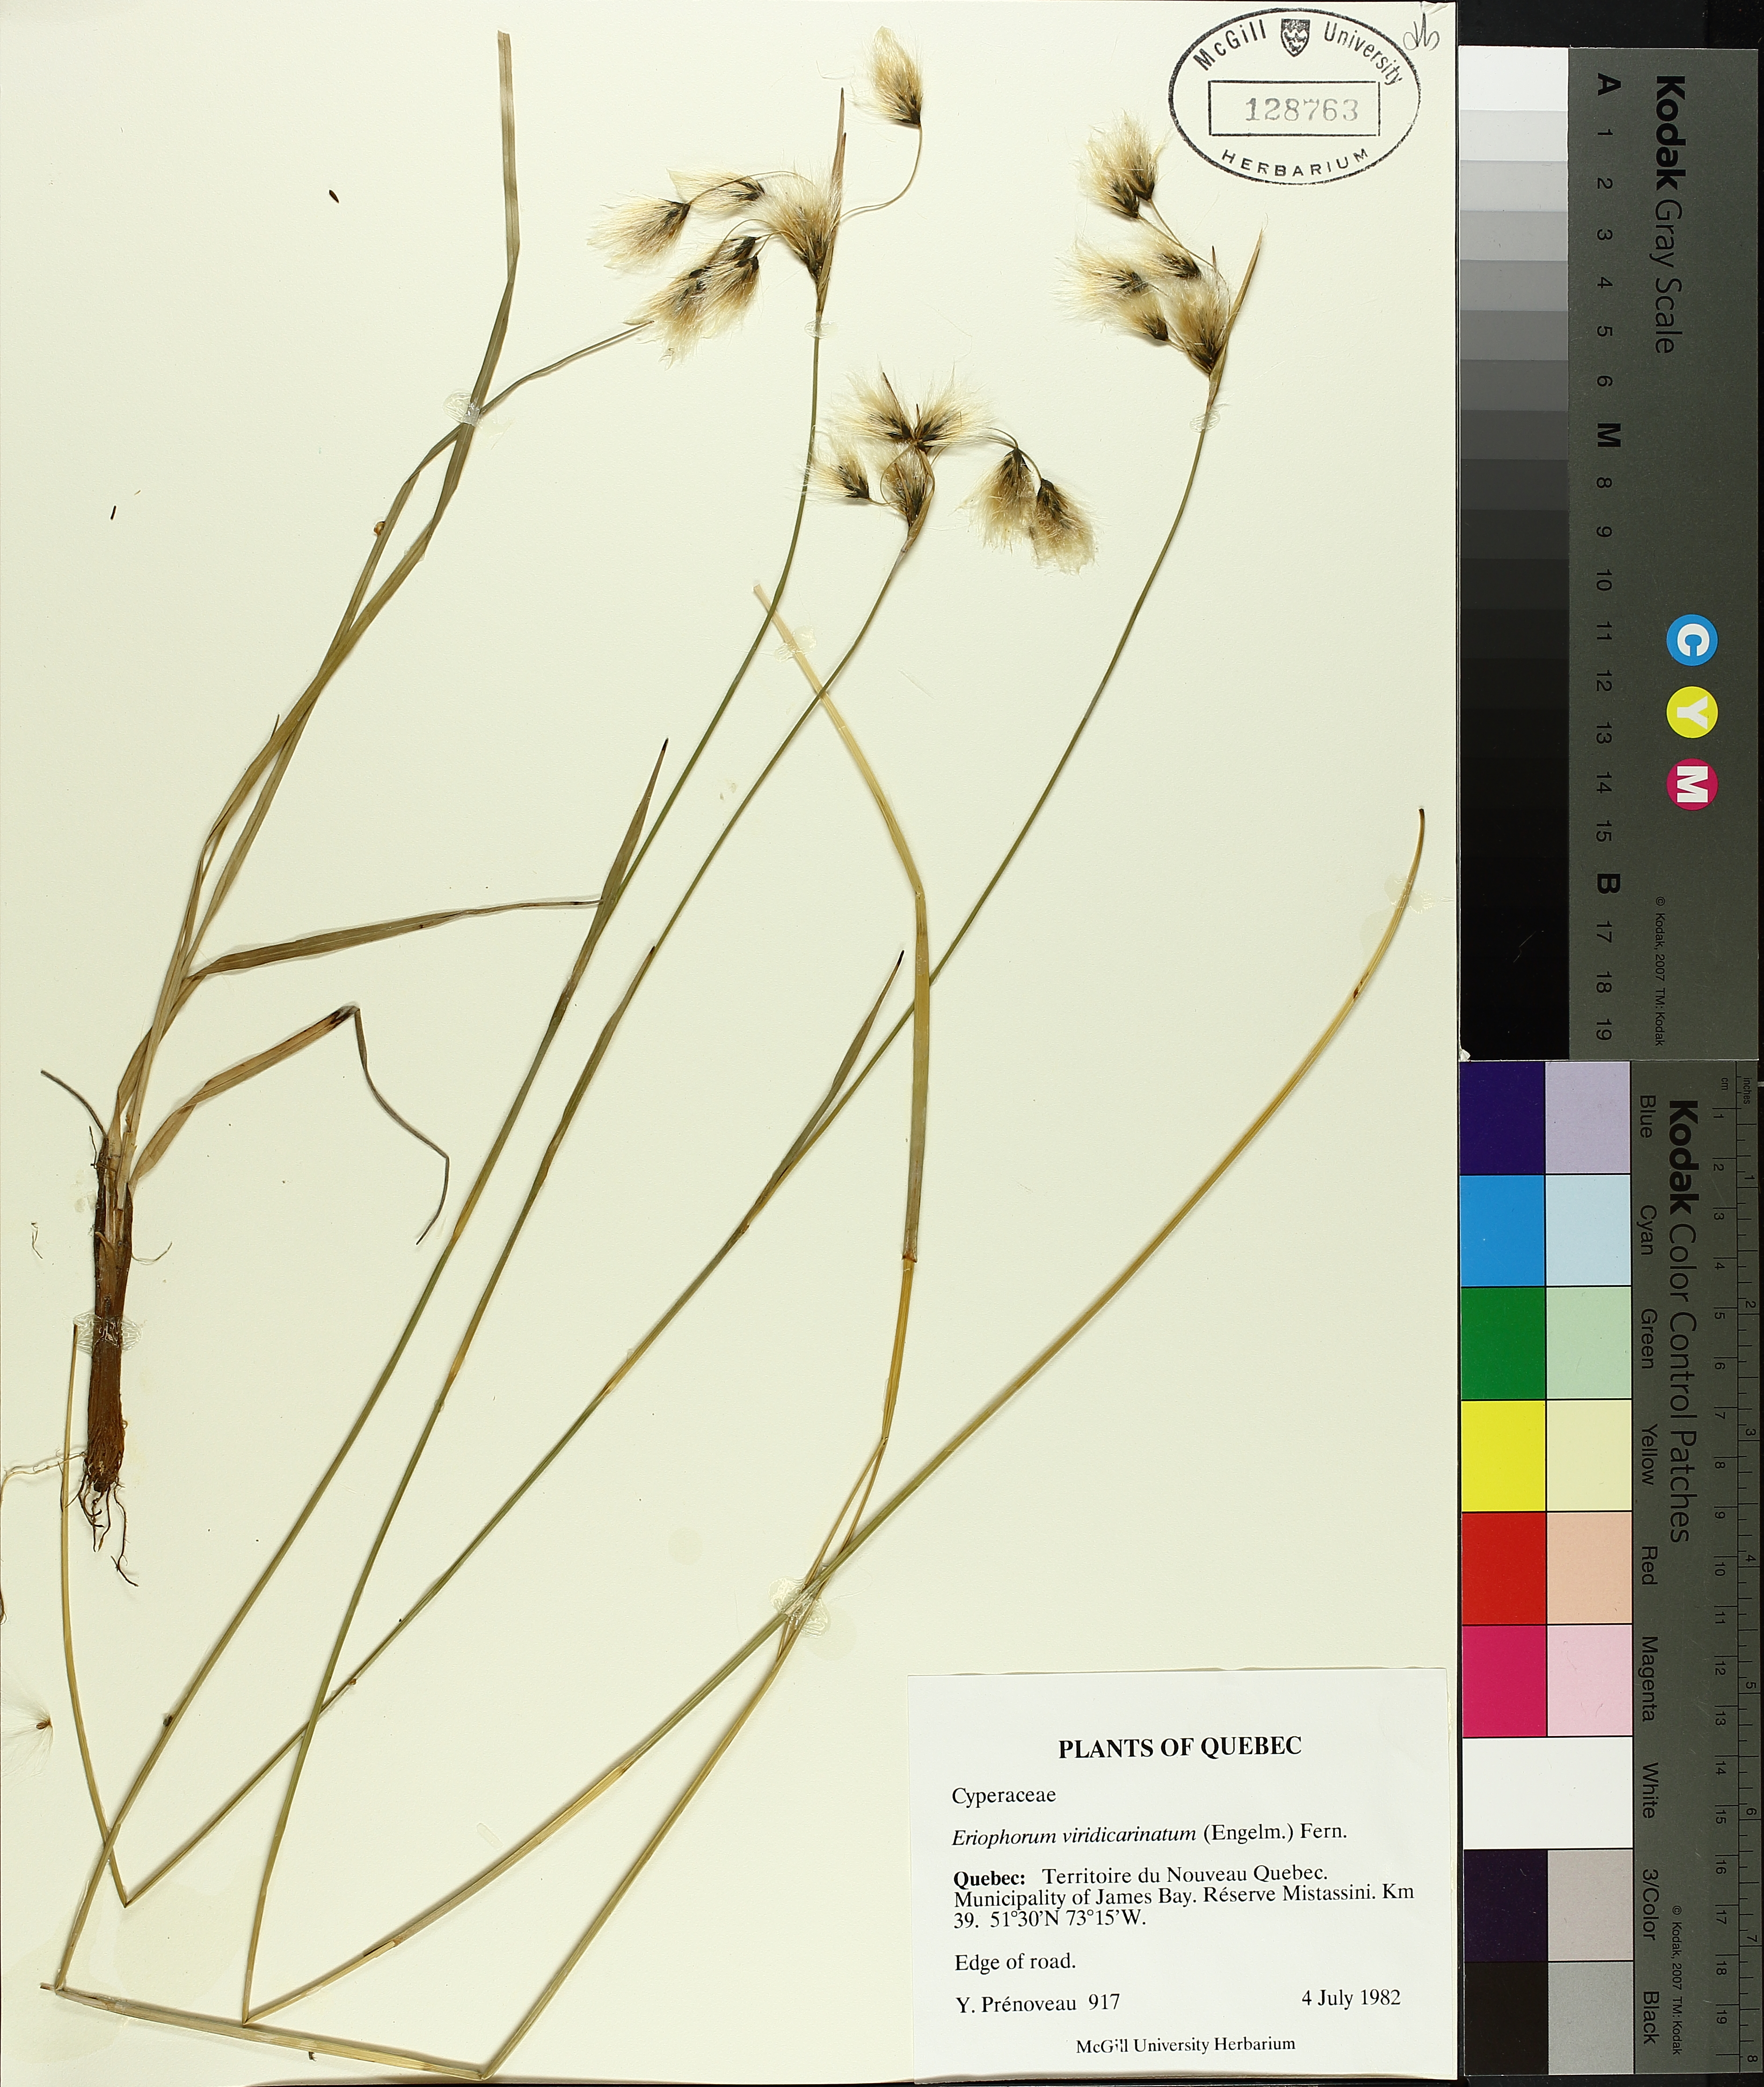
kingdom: Plantae
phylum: Tracheophyta
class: Liliopsida
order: Poales
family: Cyperaceae
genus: Eriophorum
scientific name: Eriophorum viridicarinatum
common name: Green-keeled cottongrass
